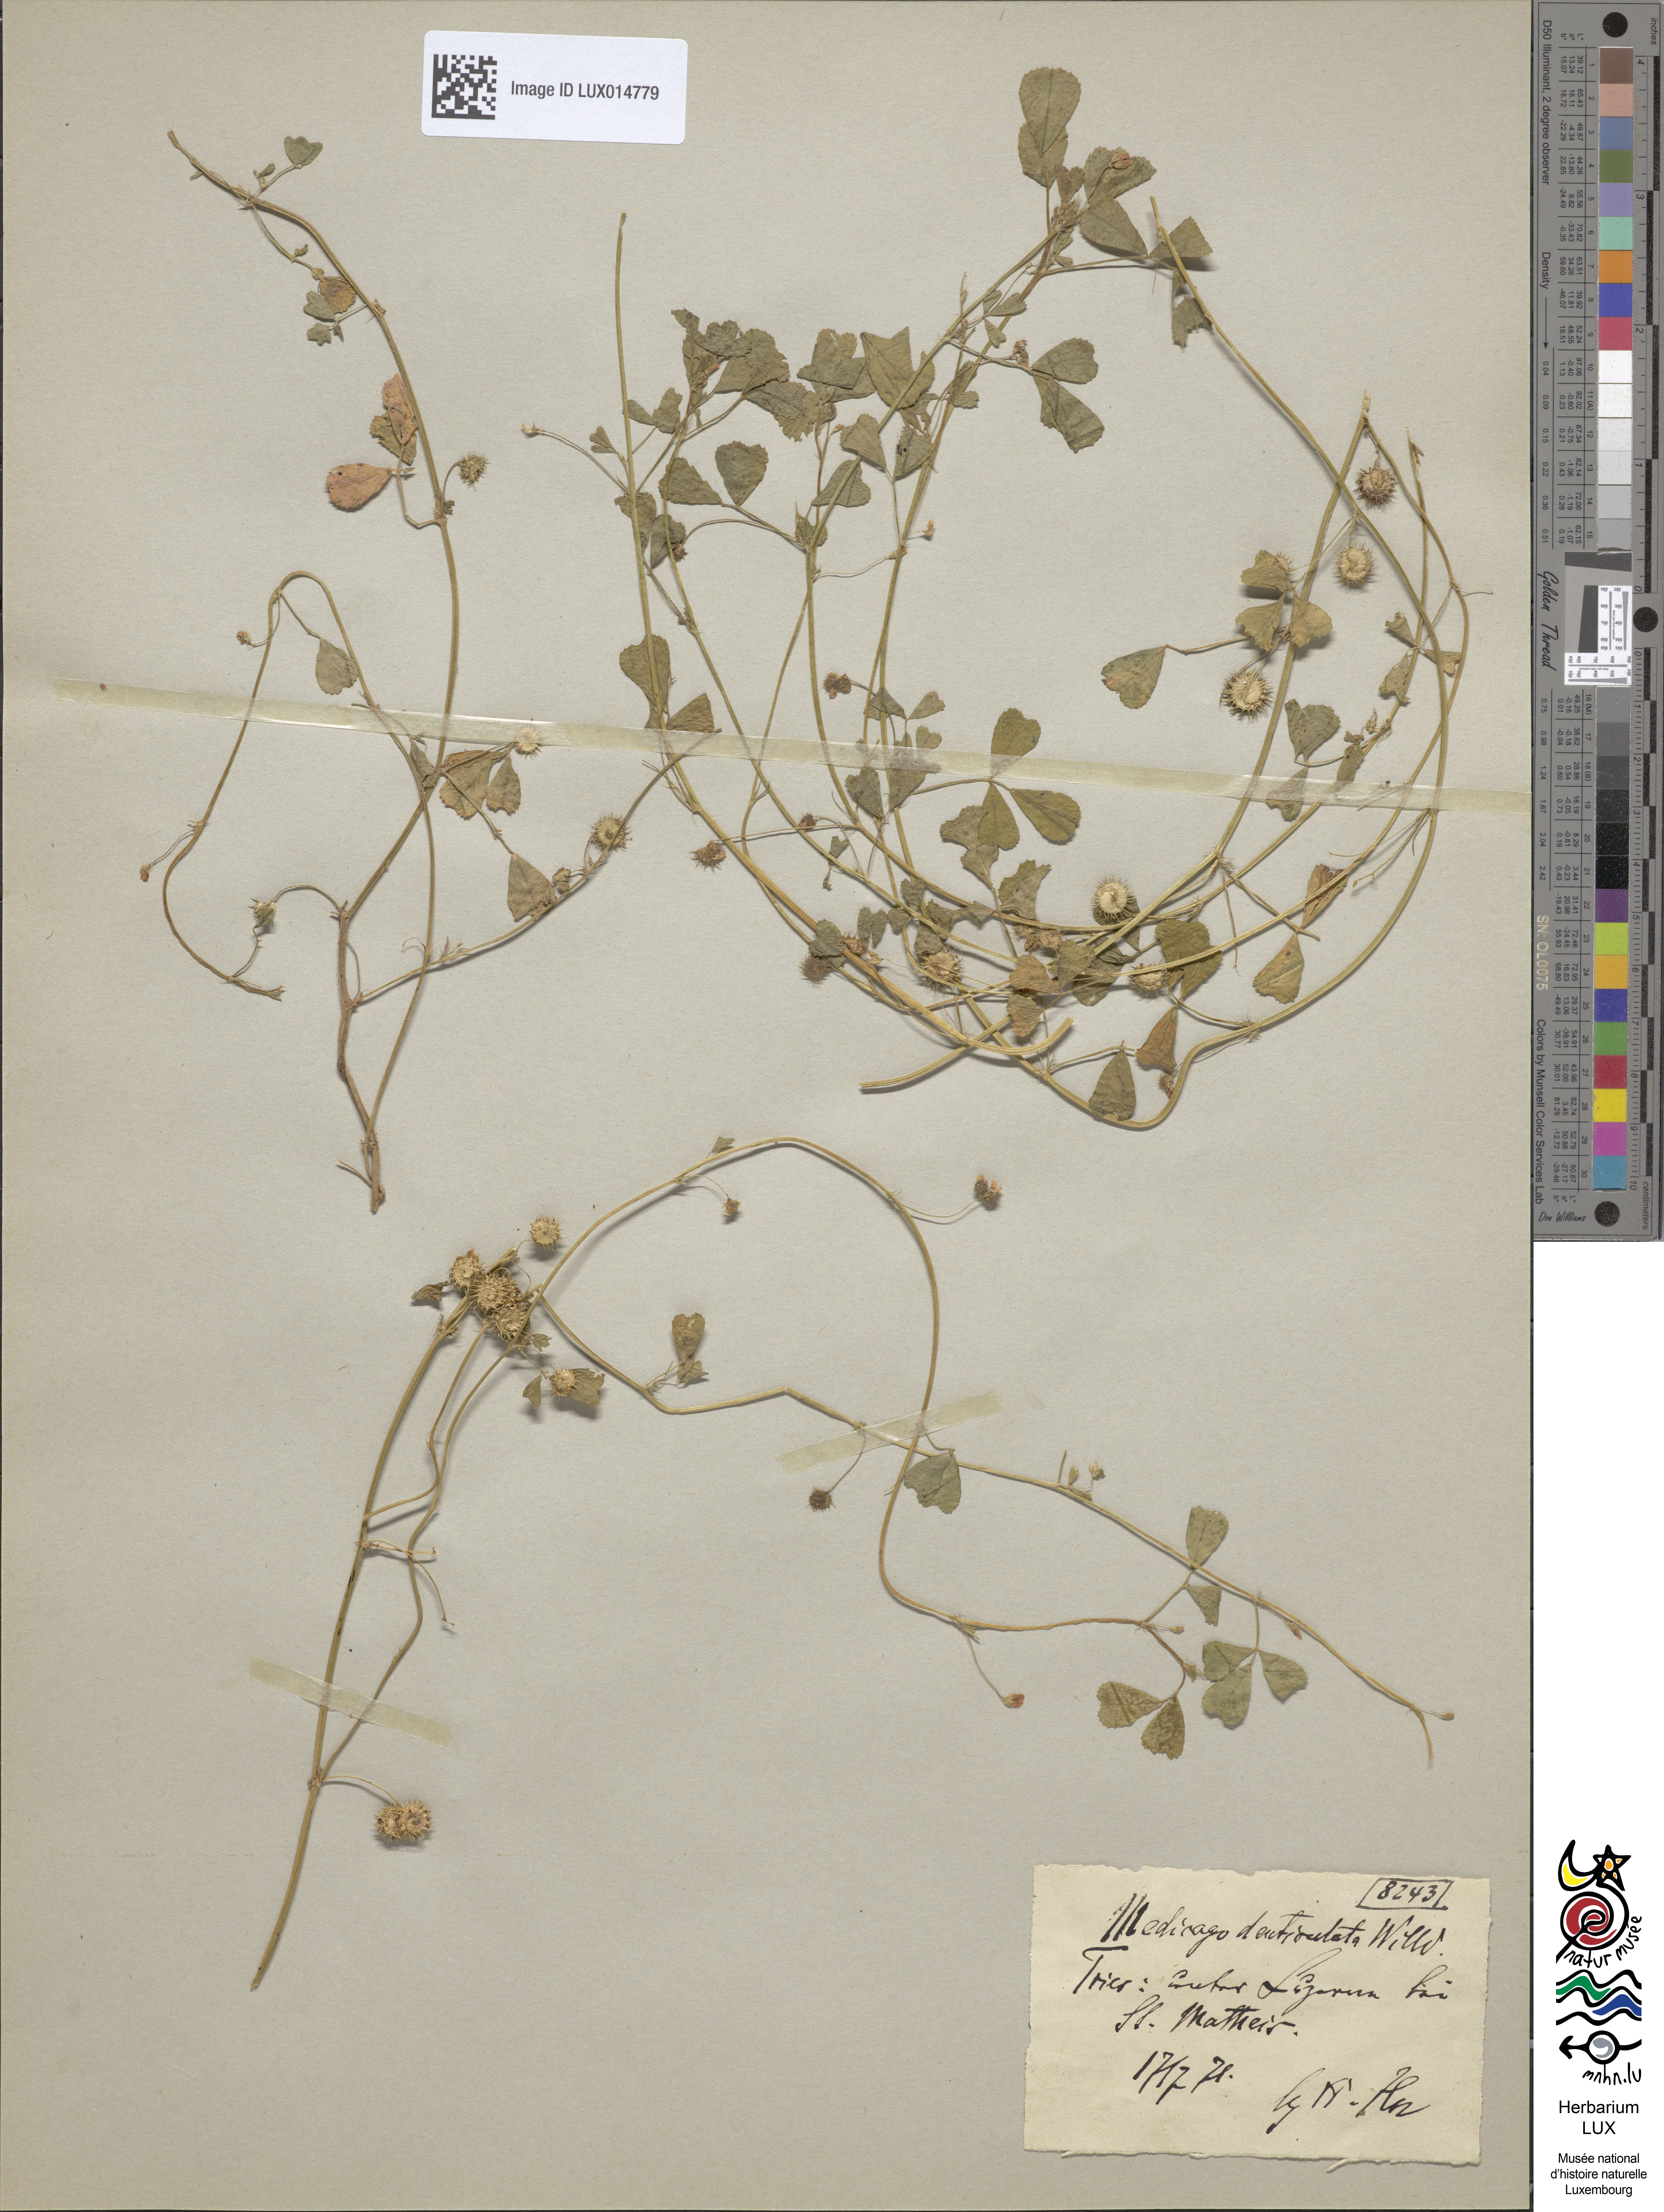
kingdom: Plantae
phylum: Tracheophyta
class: Magnoliopsida
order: Fabales
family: Fabaceae
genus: Medicago
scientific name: Medicago polymorpha
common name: Burclover
